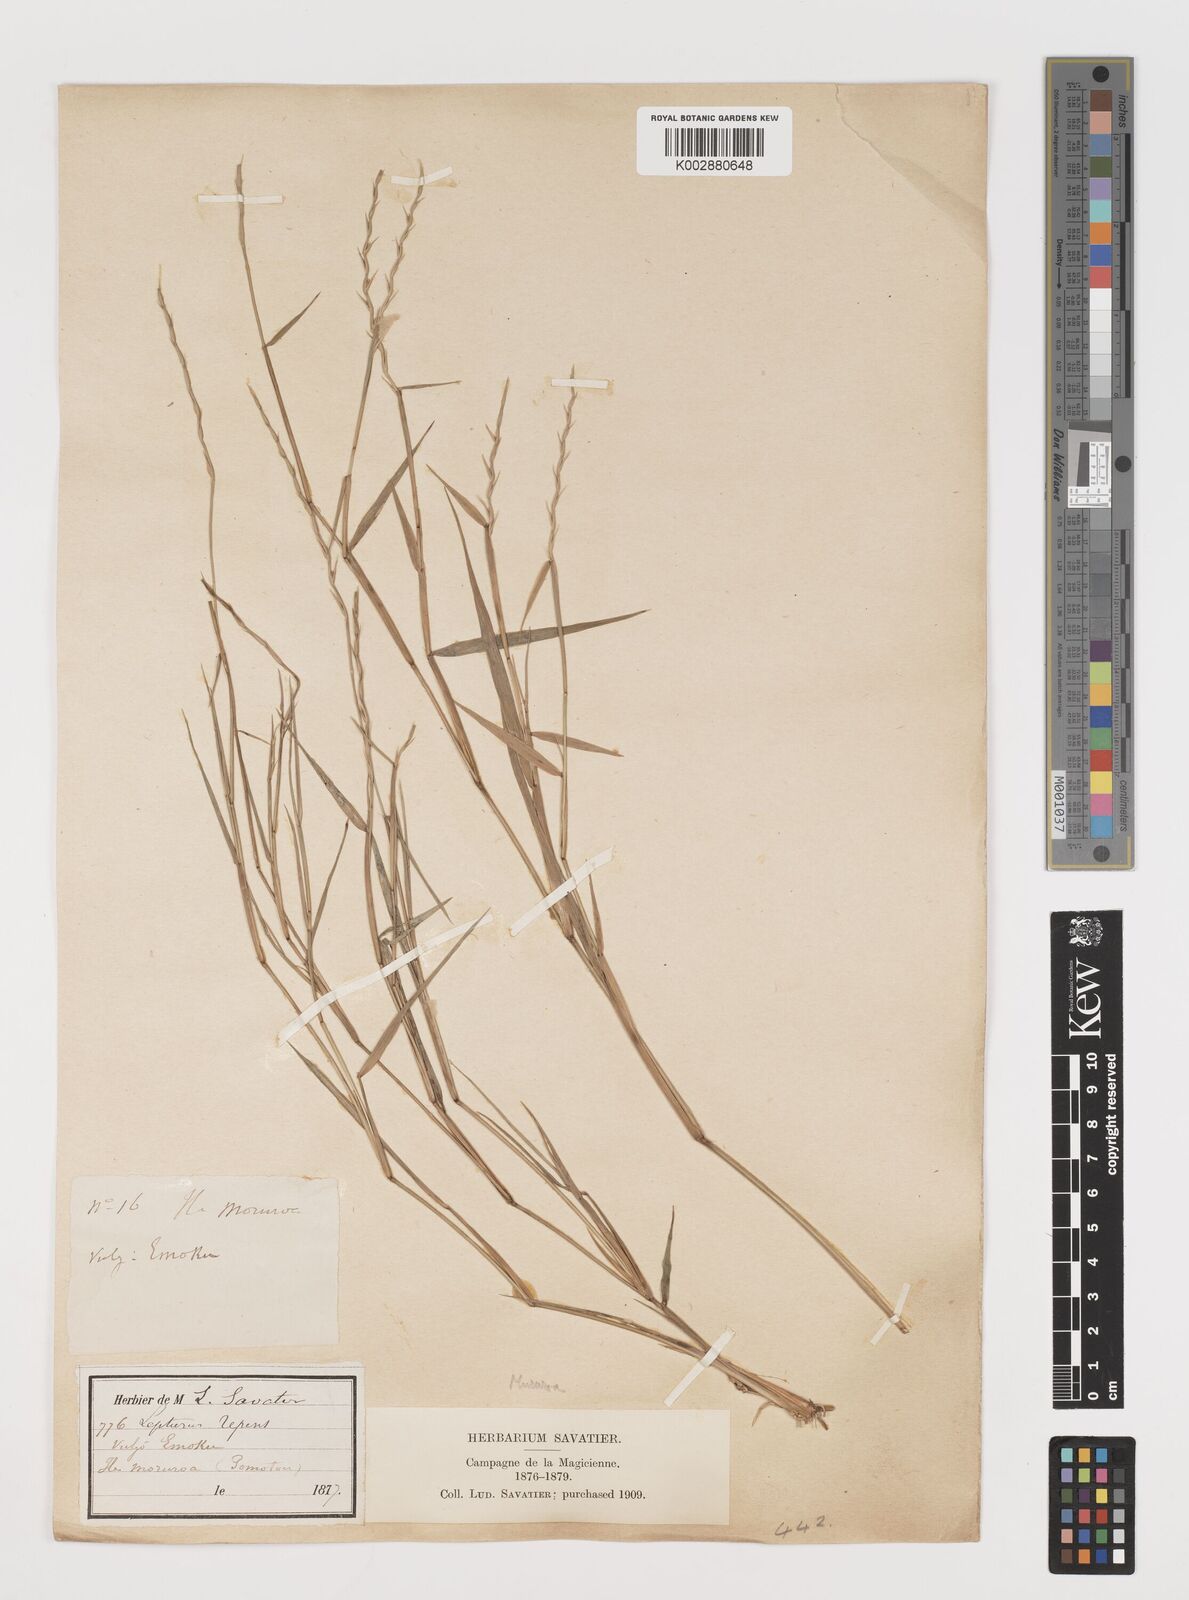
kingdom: Plantae
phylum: Tracheophyta
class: Liliopsida
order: Poales
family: Poaceae
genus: Lepturus
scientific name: Lepturus
